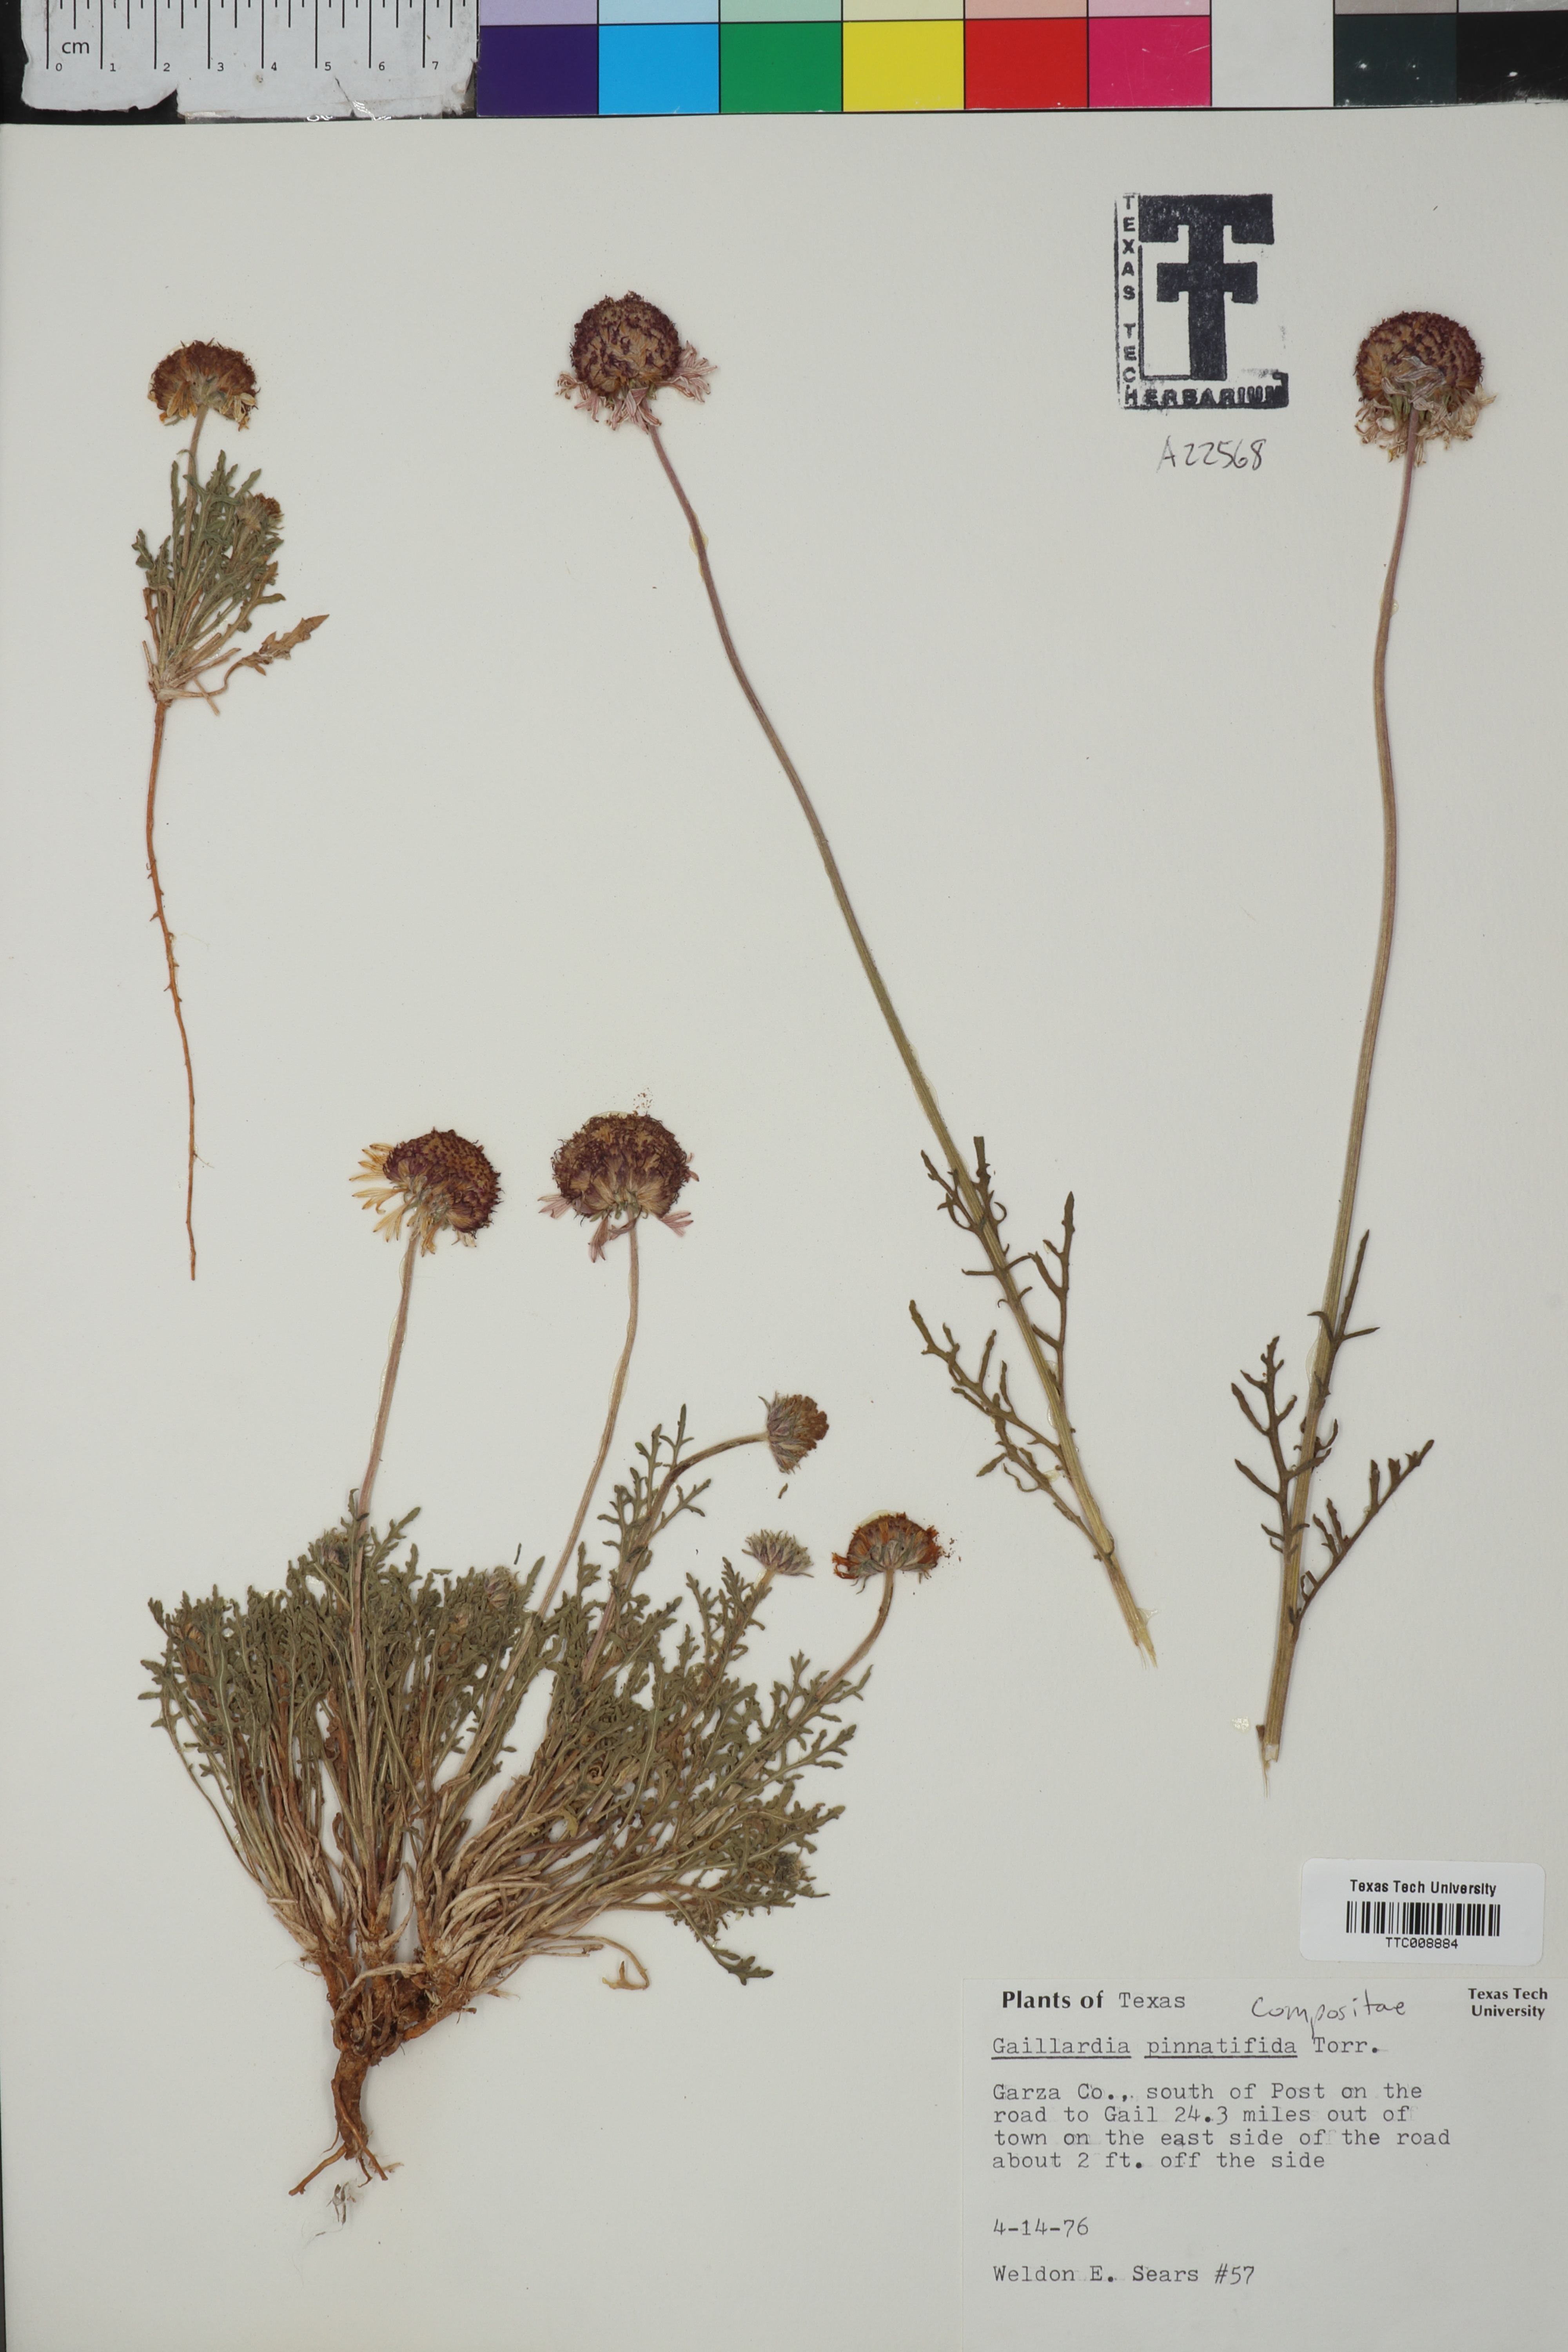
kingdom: Plantae
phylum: Tracheophyta
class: Magnoliopsida
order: Asterales
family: Asteraceae
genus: Gaillardia
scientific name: Gaillardia pinnatifida
